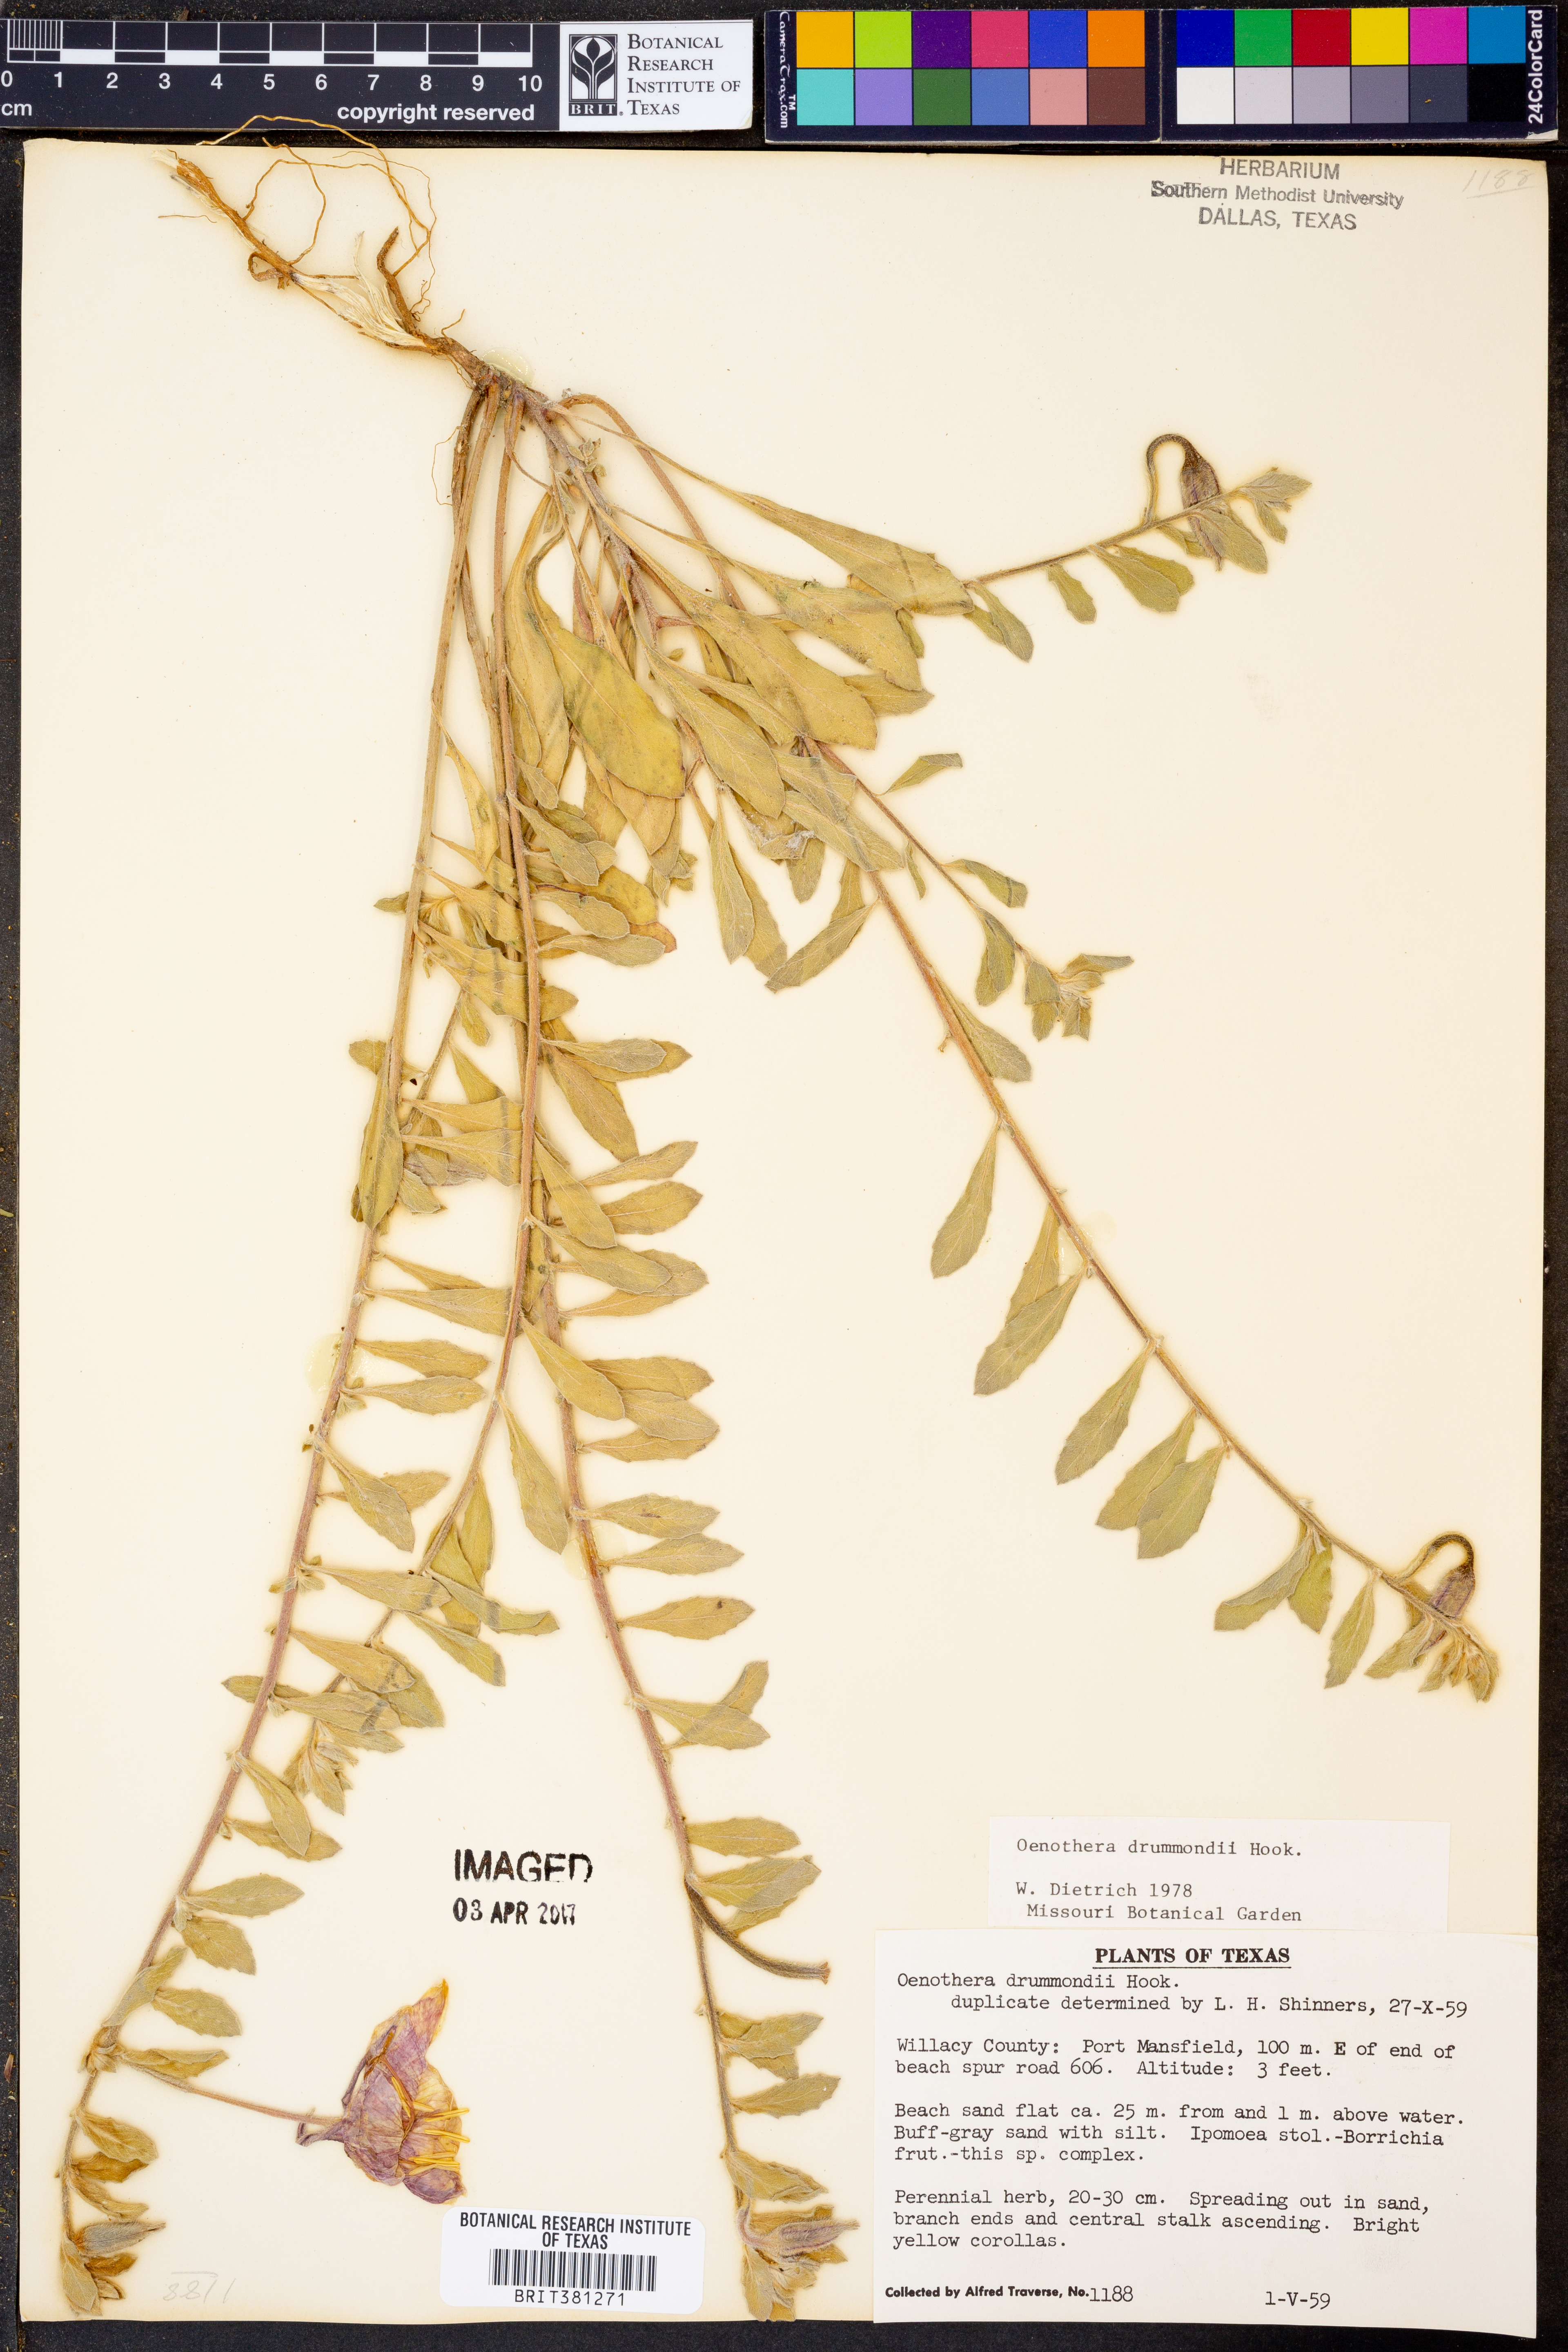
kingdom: Plantae
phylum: Tracheophyta
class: Magnoliopsida
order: Myrtales
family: Onagraceae
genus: Oenothera
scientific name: Oenothera drummondii
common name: Beach evening-primrose
